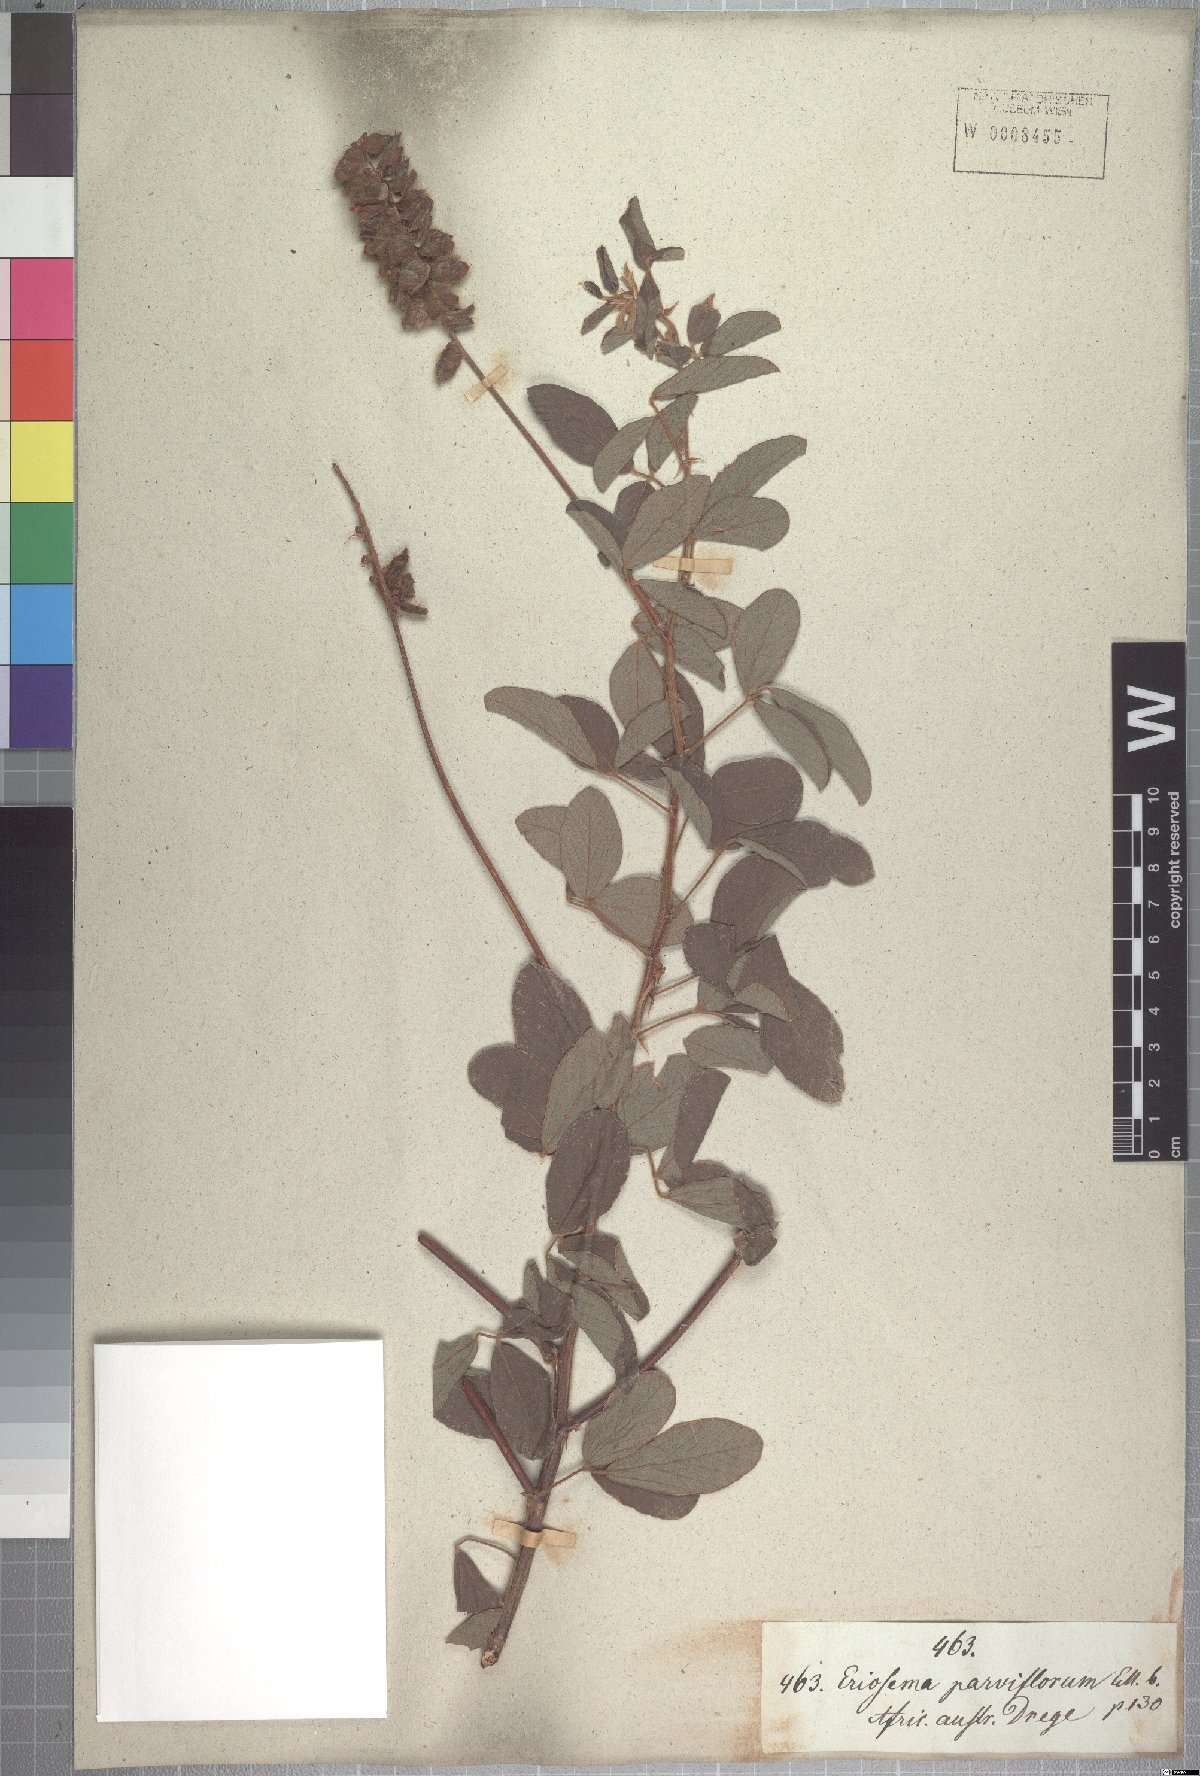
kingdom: Plantae
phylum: Tracheophyta
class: Magnoliopsida
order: Fabales
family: Fabaceae
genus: Eriosema
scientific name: Eriosema parviflorum
